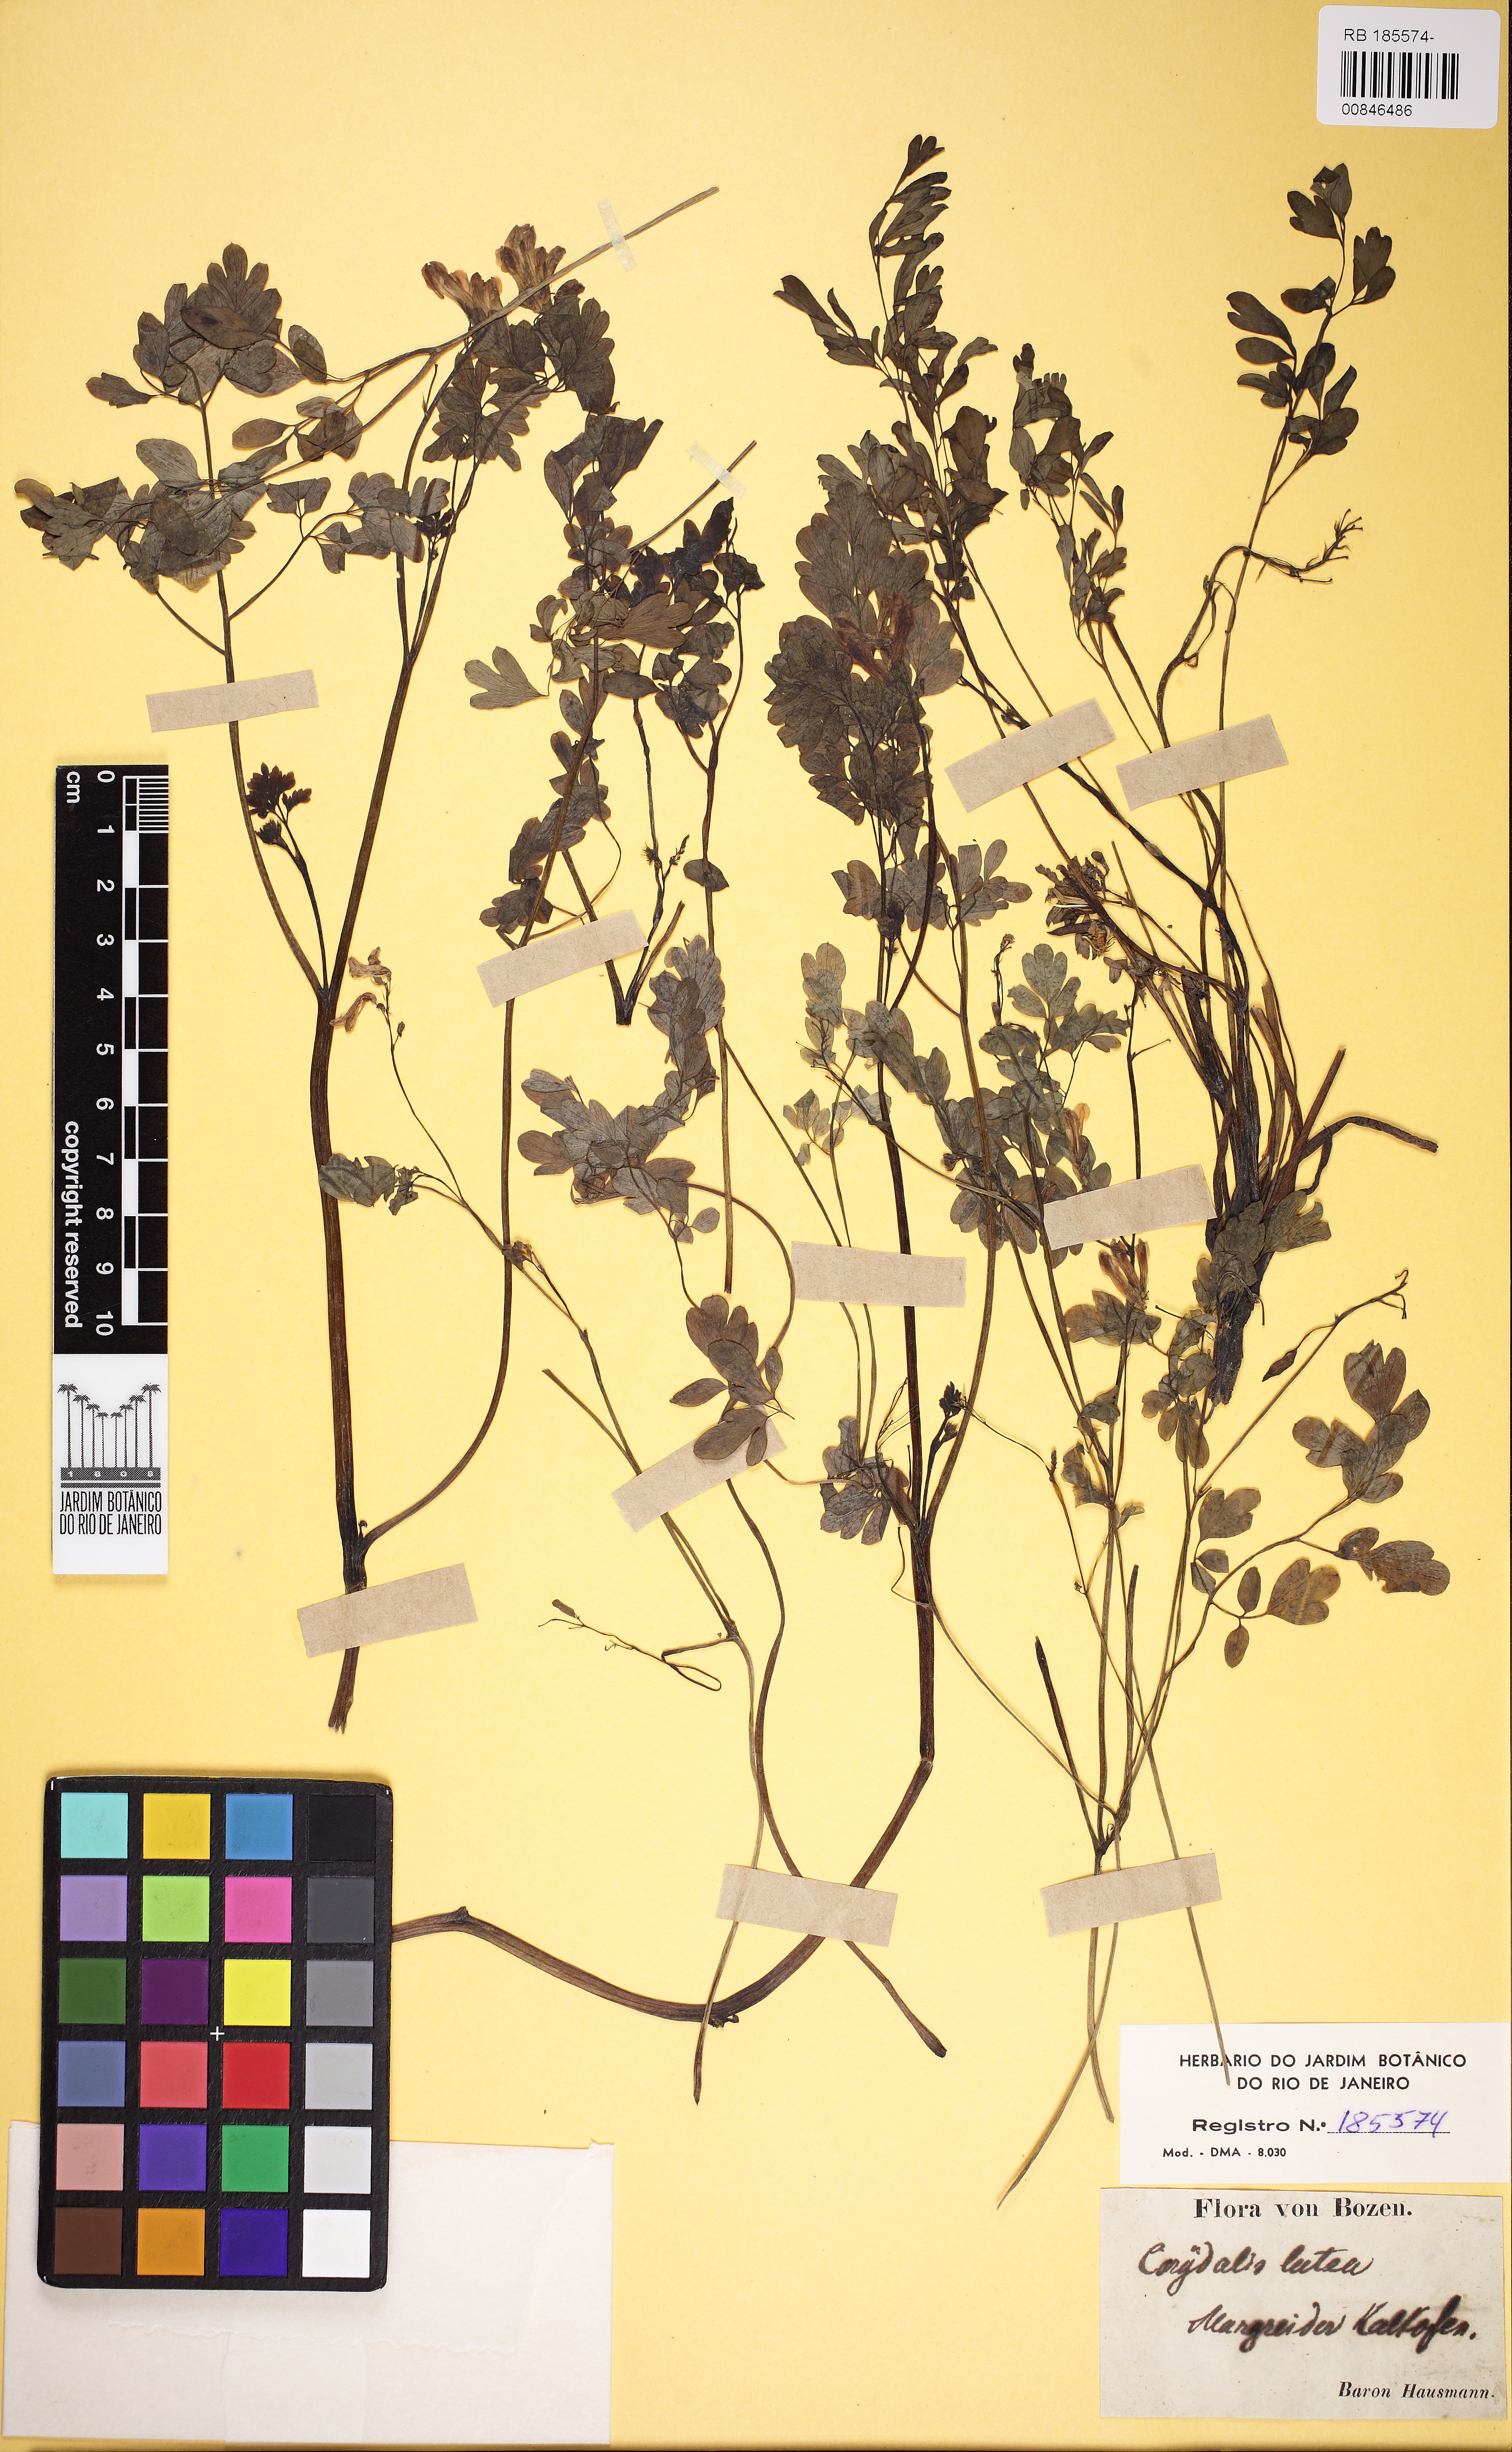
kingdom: Plantae
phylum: Tracheophyta
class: Magnoliopsida
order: Ranunculales
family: Papaveraceae
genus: Pseudofumaria
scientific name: Pseudofumaria lutea
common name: Yellow corydalis
